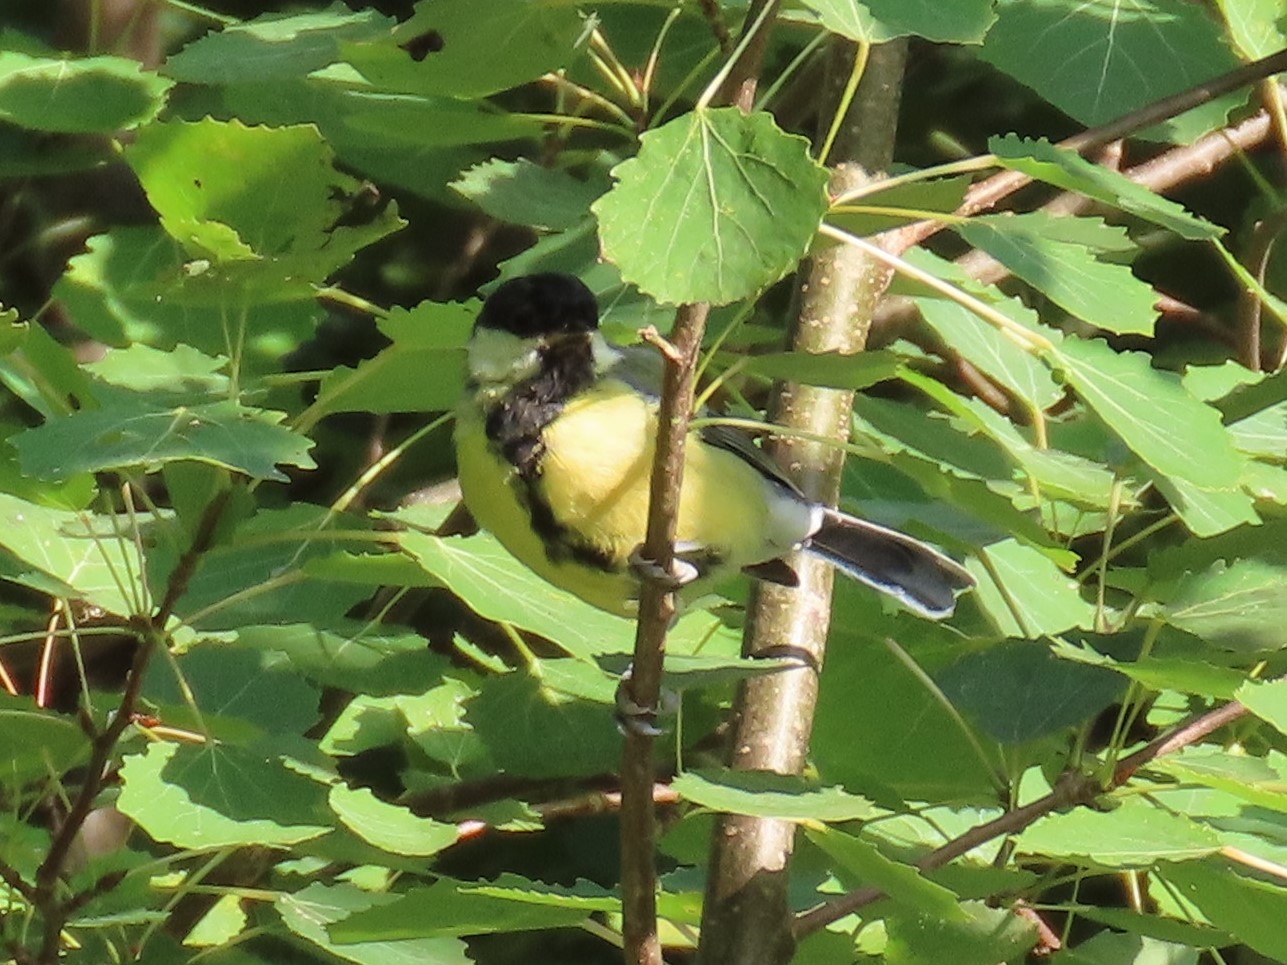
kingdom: Animalia
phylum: Chordata
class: Aves
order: Passeriformes
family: Paridae
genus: Parus
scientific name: Parus major
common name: Musvit
